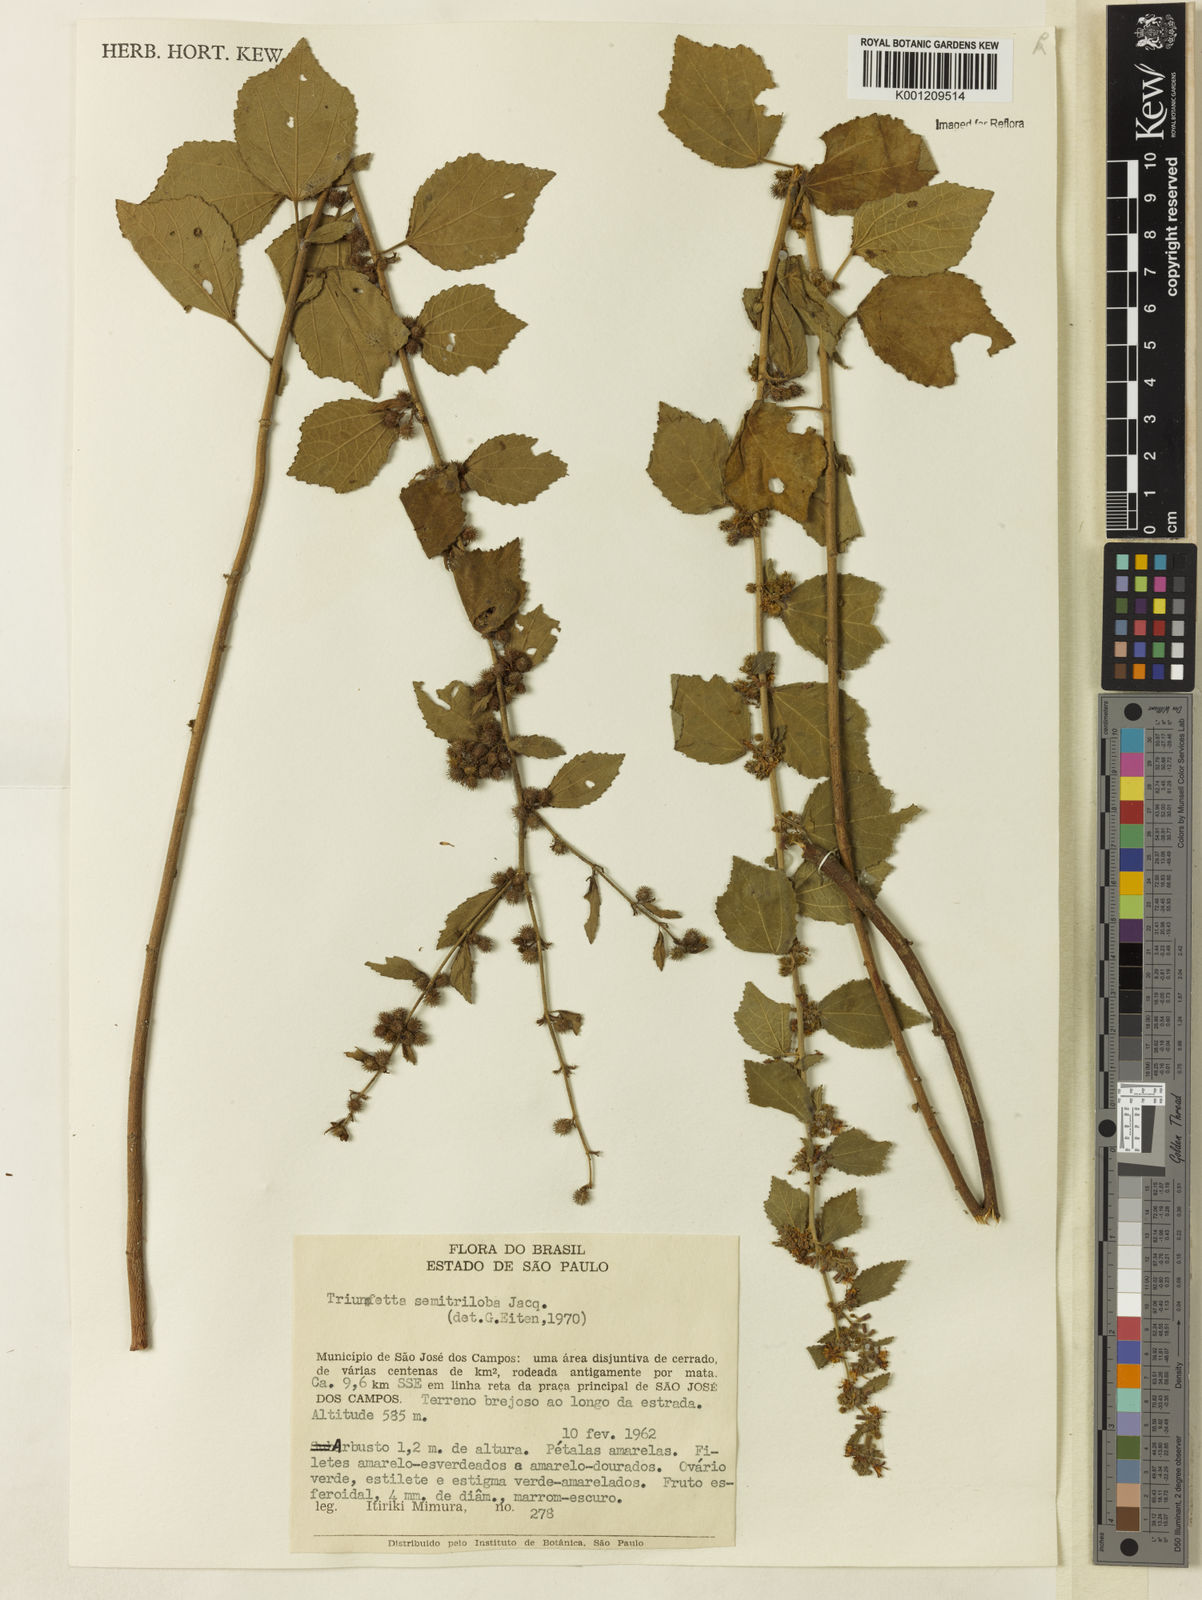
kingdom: Plantae
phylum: Tracheophyta
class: Magnoliopsida
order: Malvales
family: Malvaceae
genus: Triumfetta
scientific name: Triumfetta semitriloba
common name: Sacramento burbark
